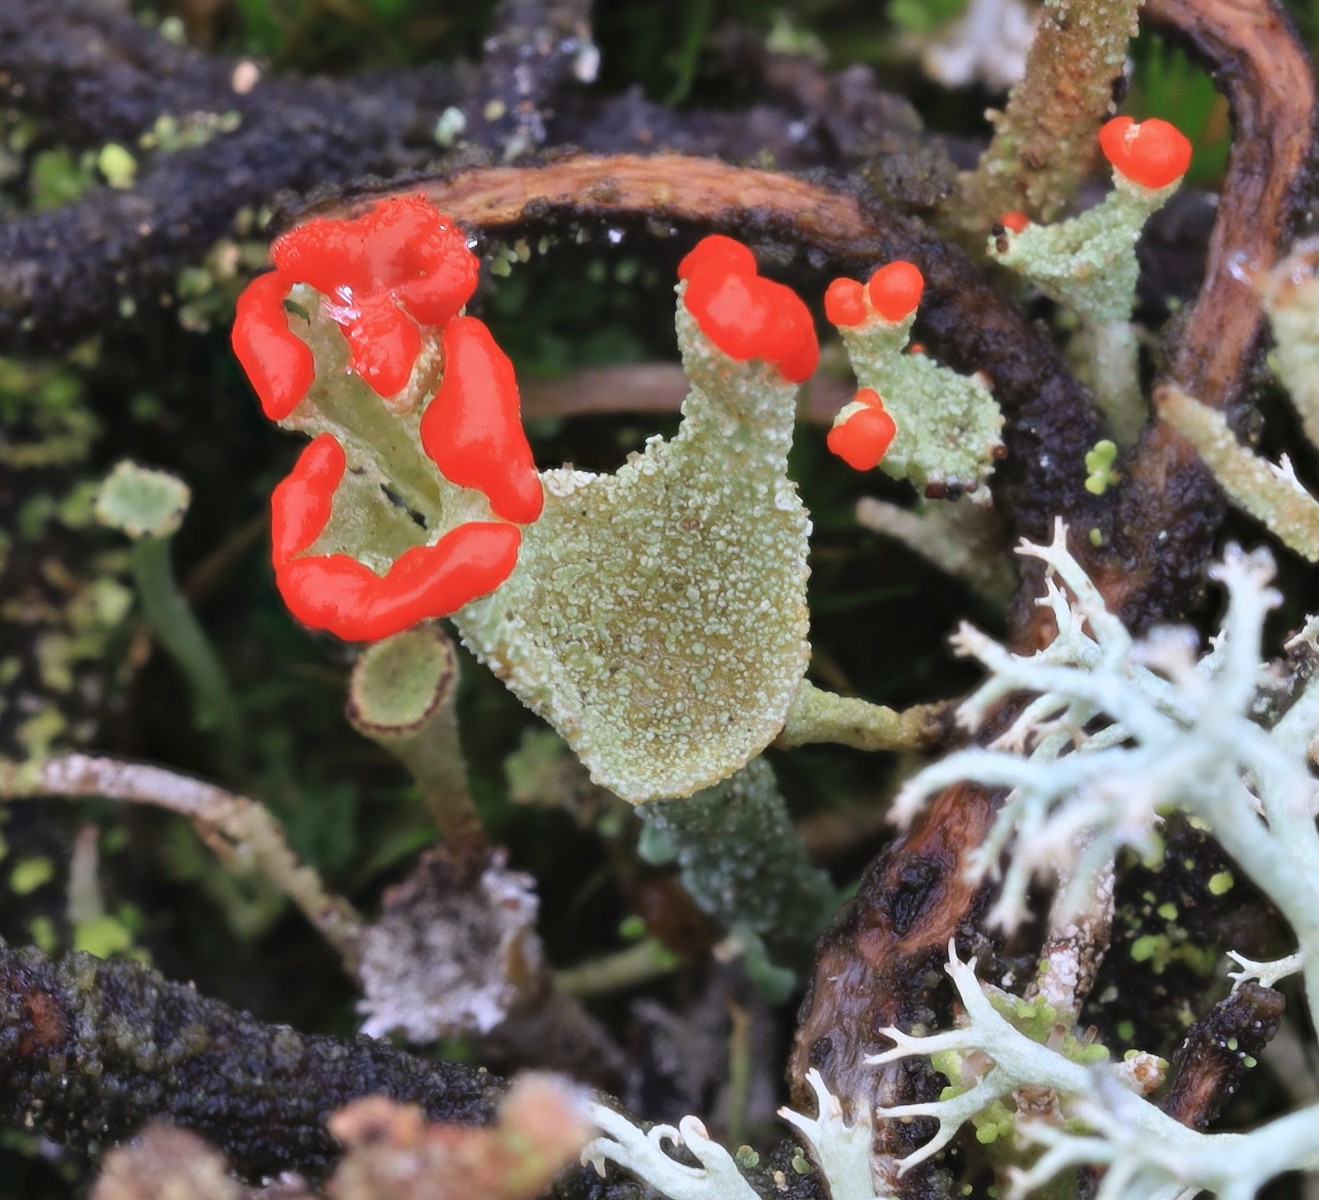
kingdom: Fungi
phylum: Ascomycota
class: Lecanoromycetes
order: Lecanorales
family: Cladoniaceae
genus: Cladonia
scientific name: Cladonia diversa
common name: rød bægerlav
